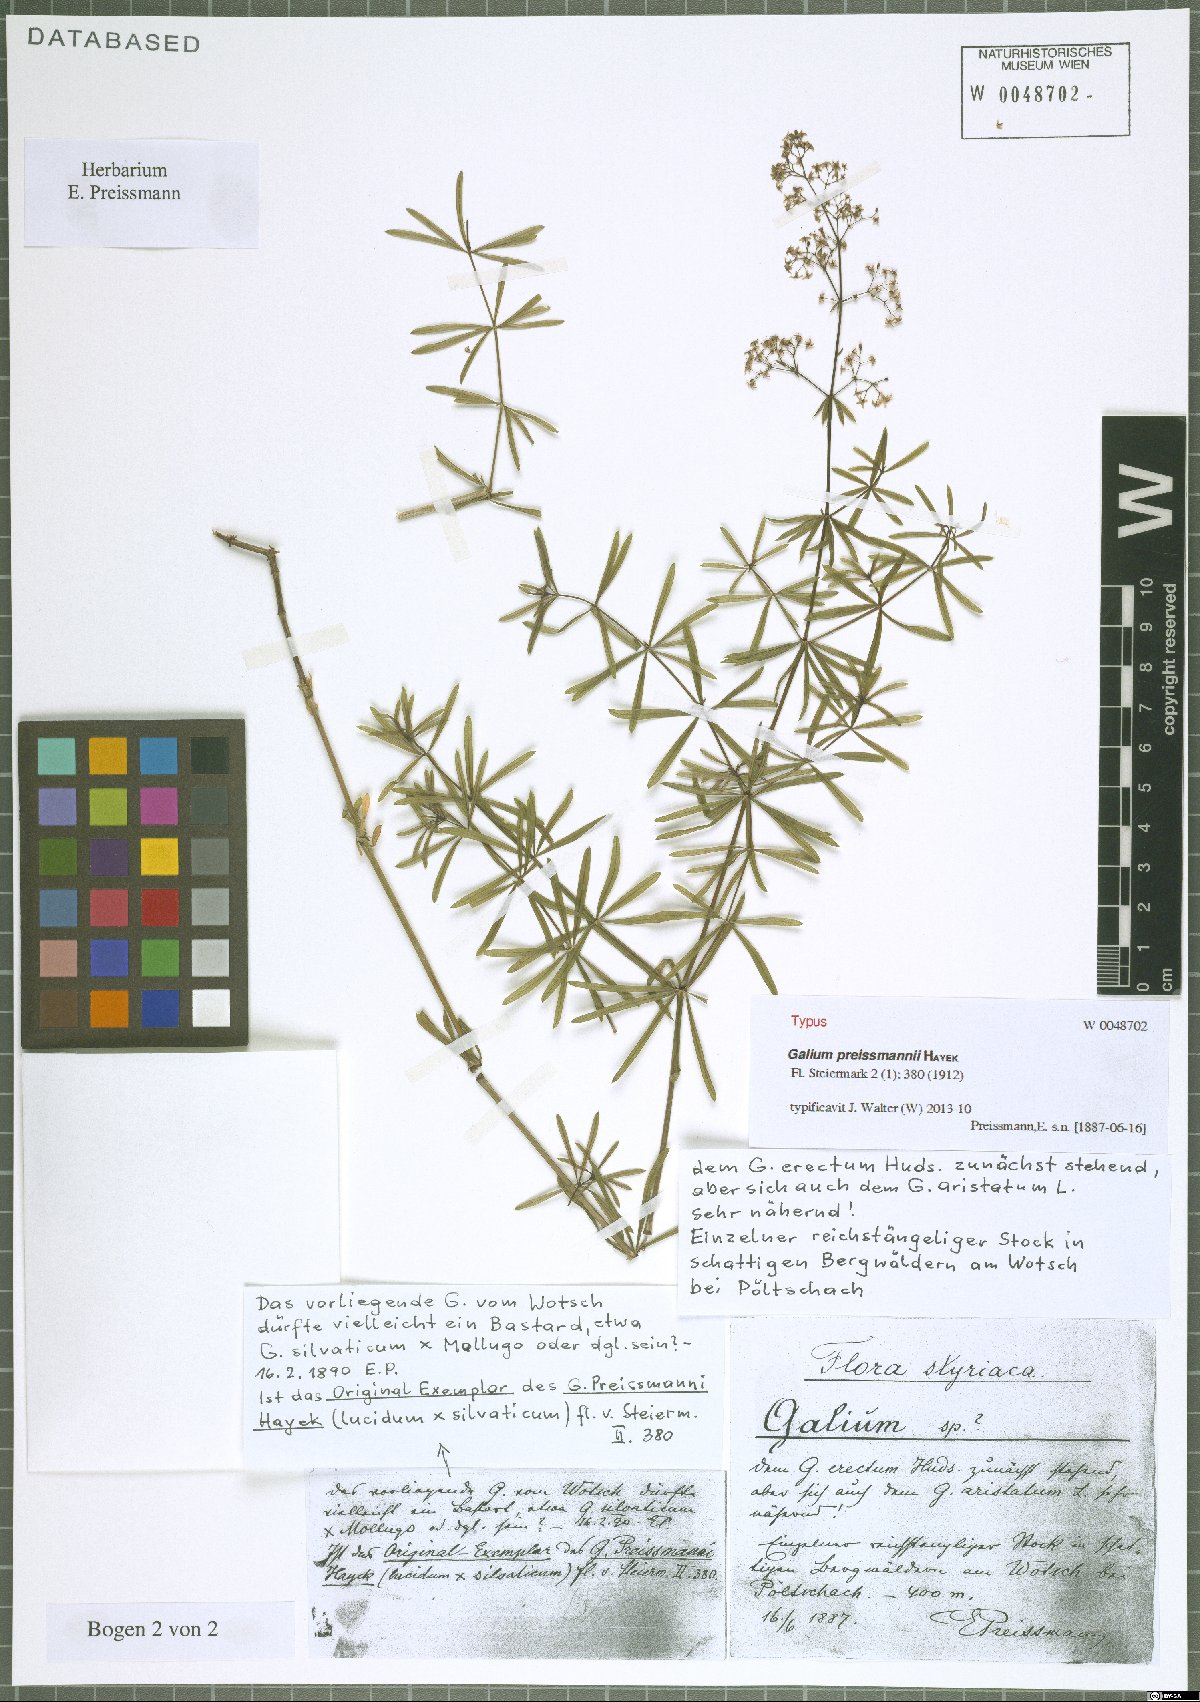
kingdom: Plantae
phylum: Tracheophyta
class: Magnoliopsida
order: Gentianales
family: Rubiaceae
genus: Galium
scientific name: Galium preissmannii
